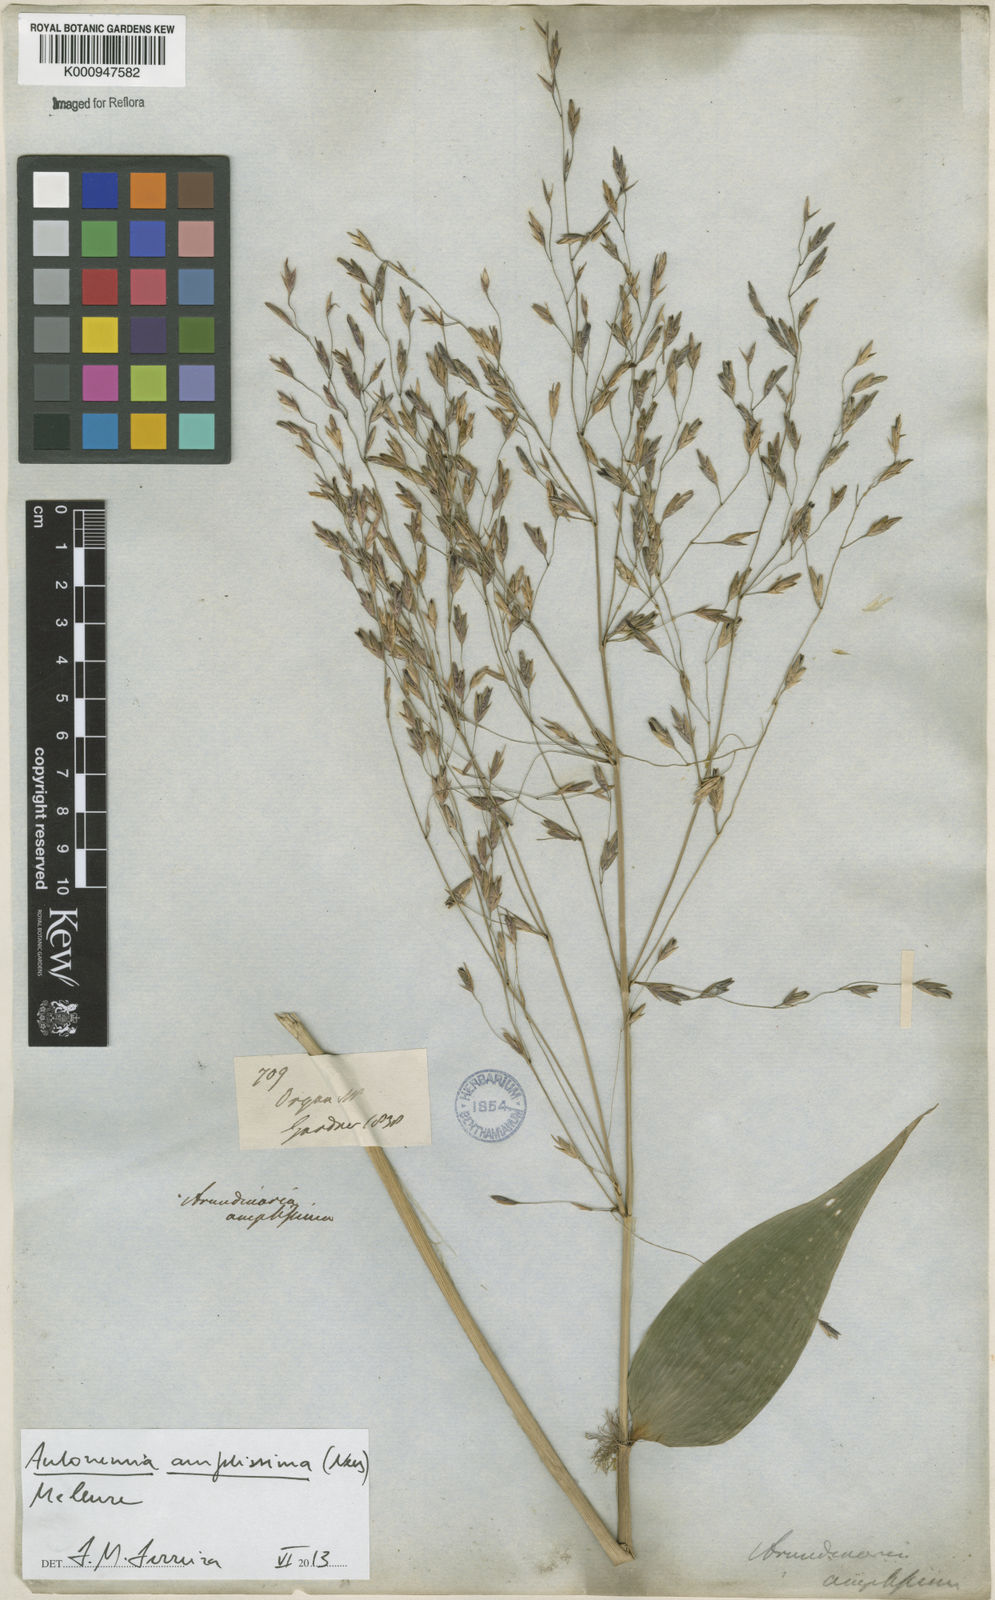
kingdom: Plantae
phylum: Tracheophyta
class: Liliopsida
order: Poales
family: Poaceae
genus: Aulonemia
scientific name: Aulonemia amplissima
